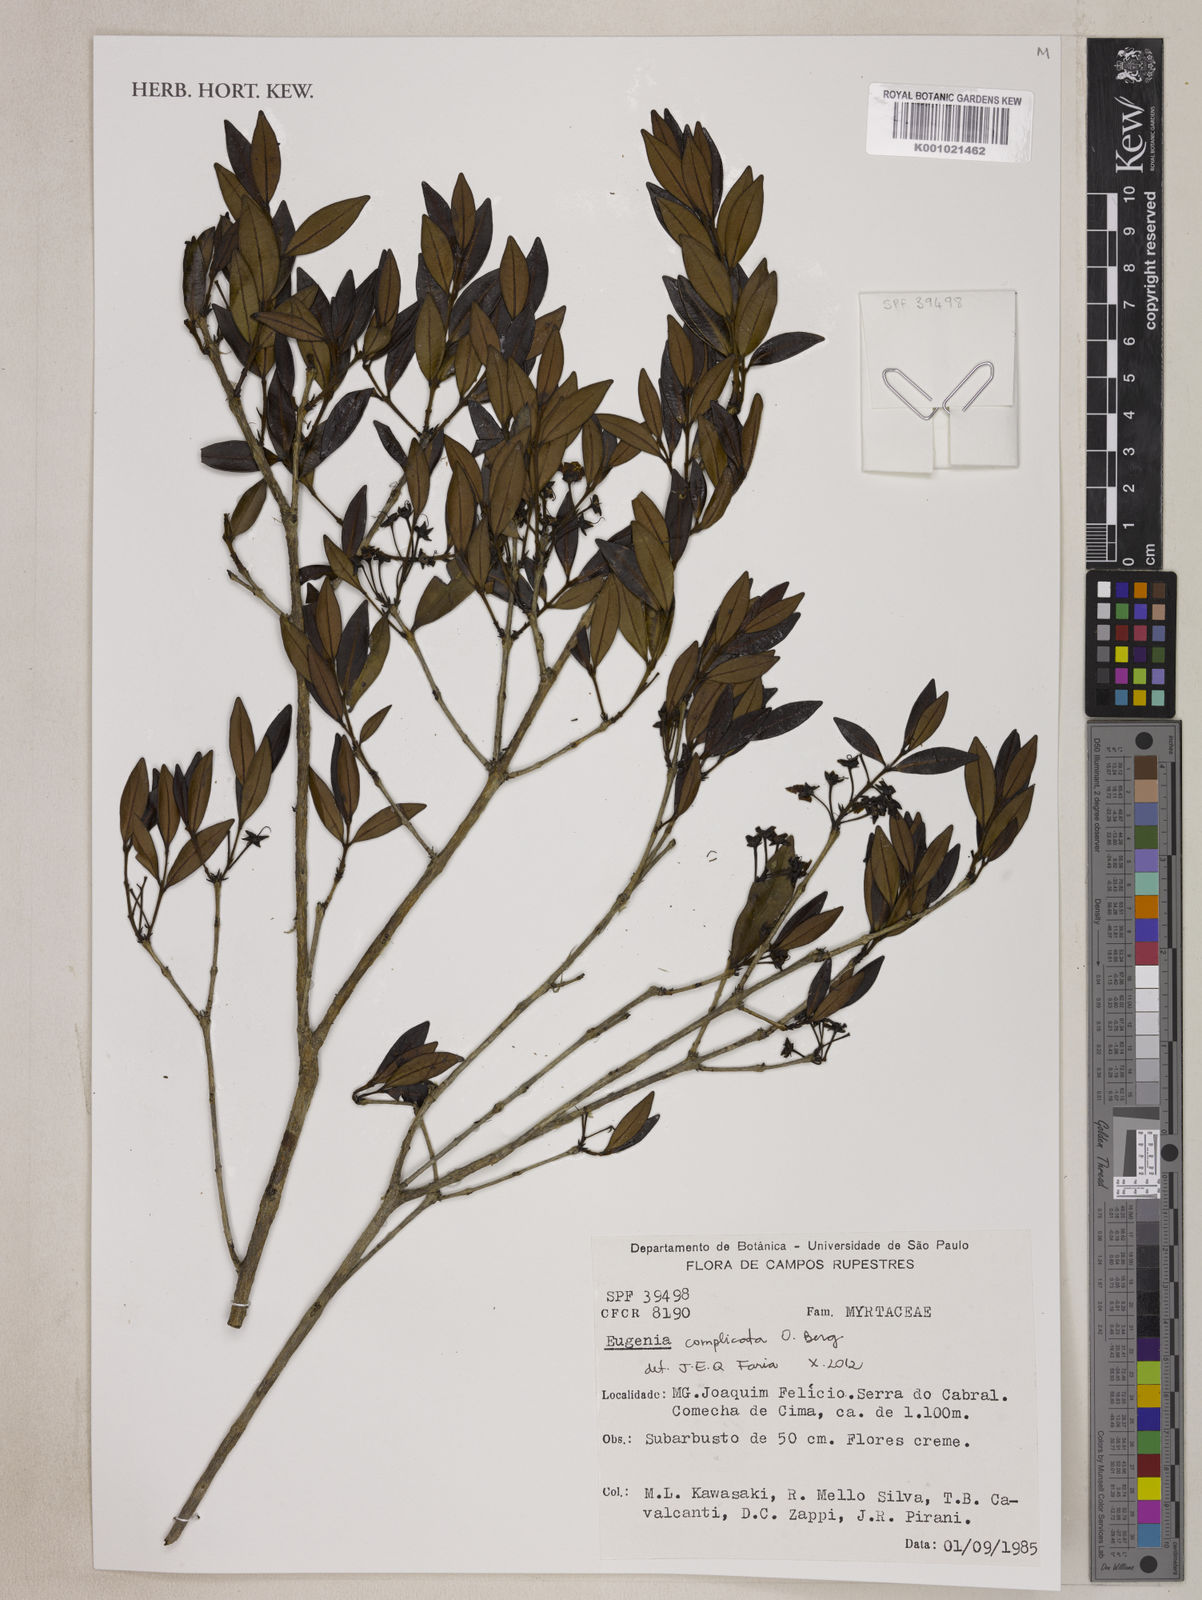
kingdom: Plantae
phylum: Tracheophyta
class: Magnoliopsida
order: Myrtales
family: Myrtaceae
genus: Eugenia
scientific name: Eugenia complicata
